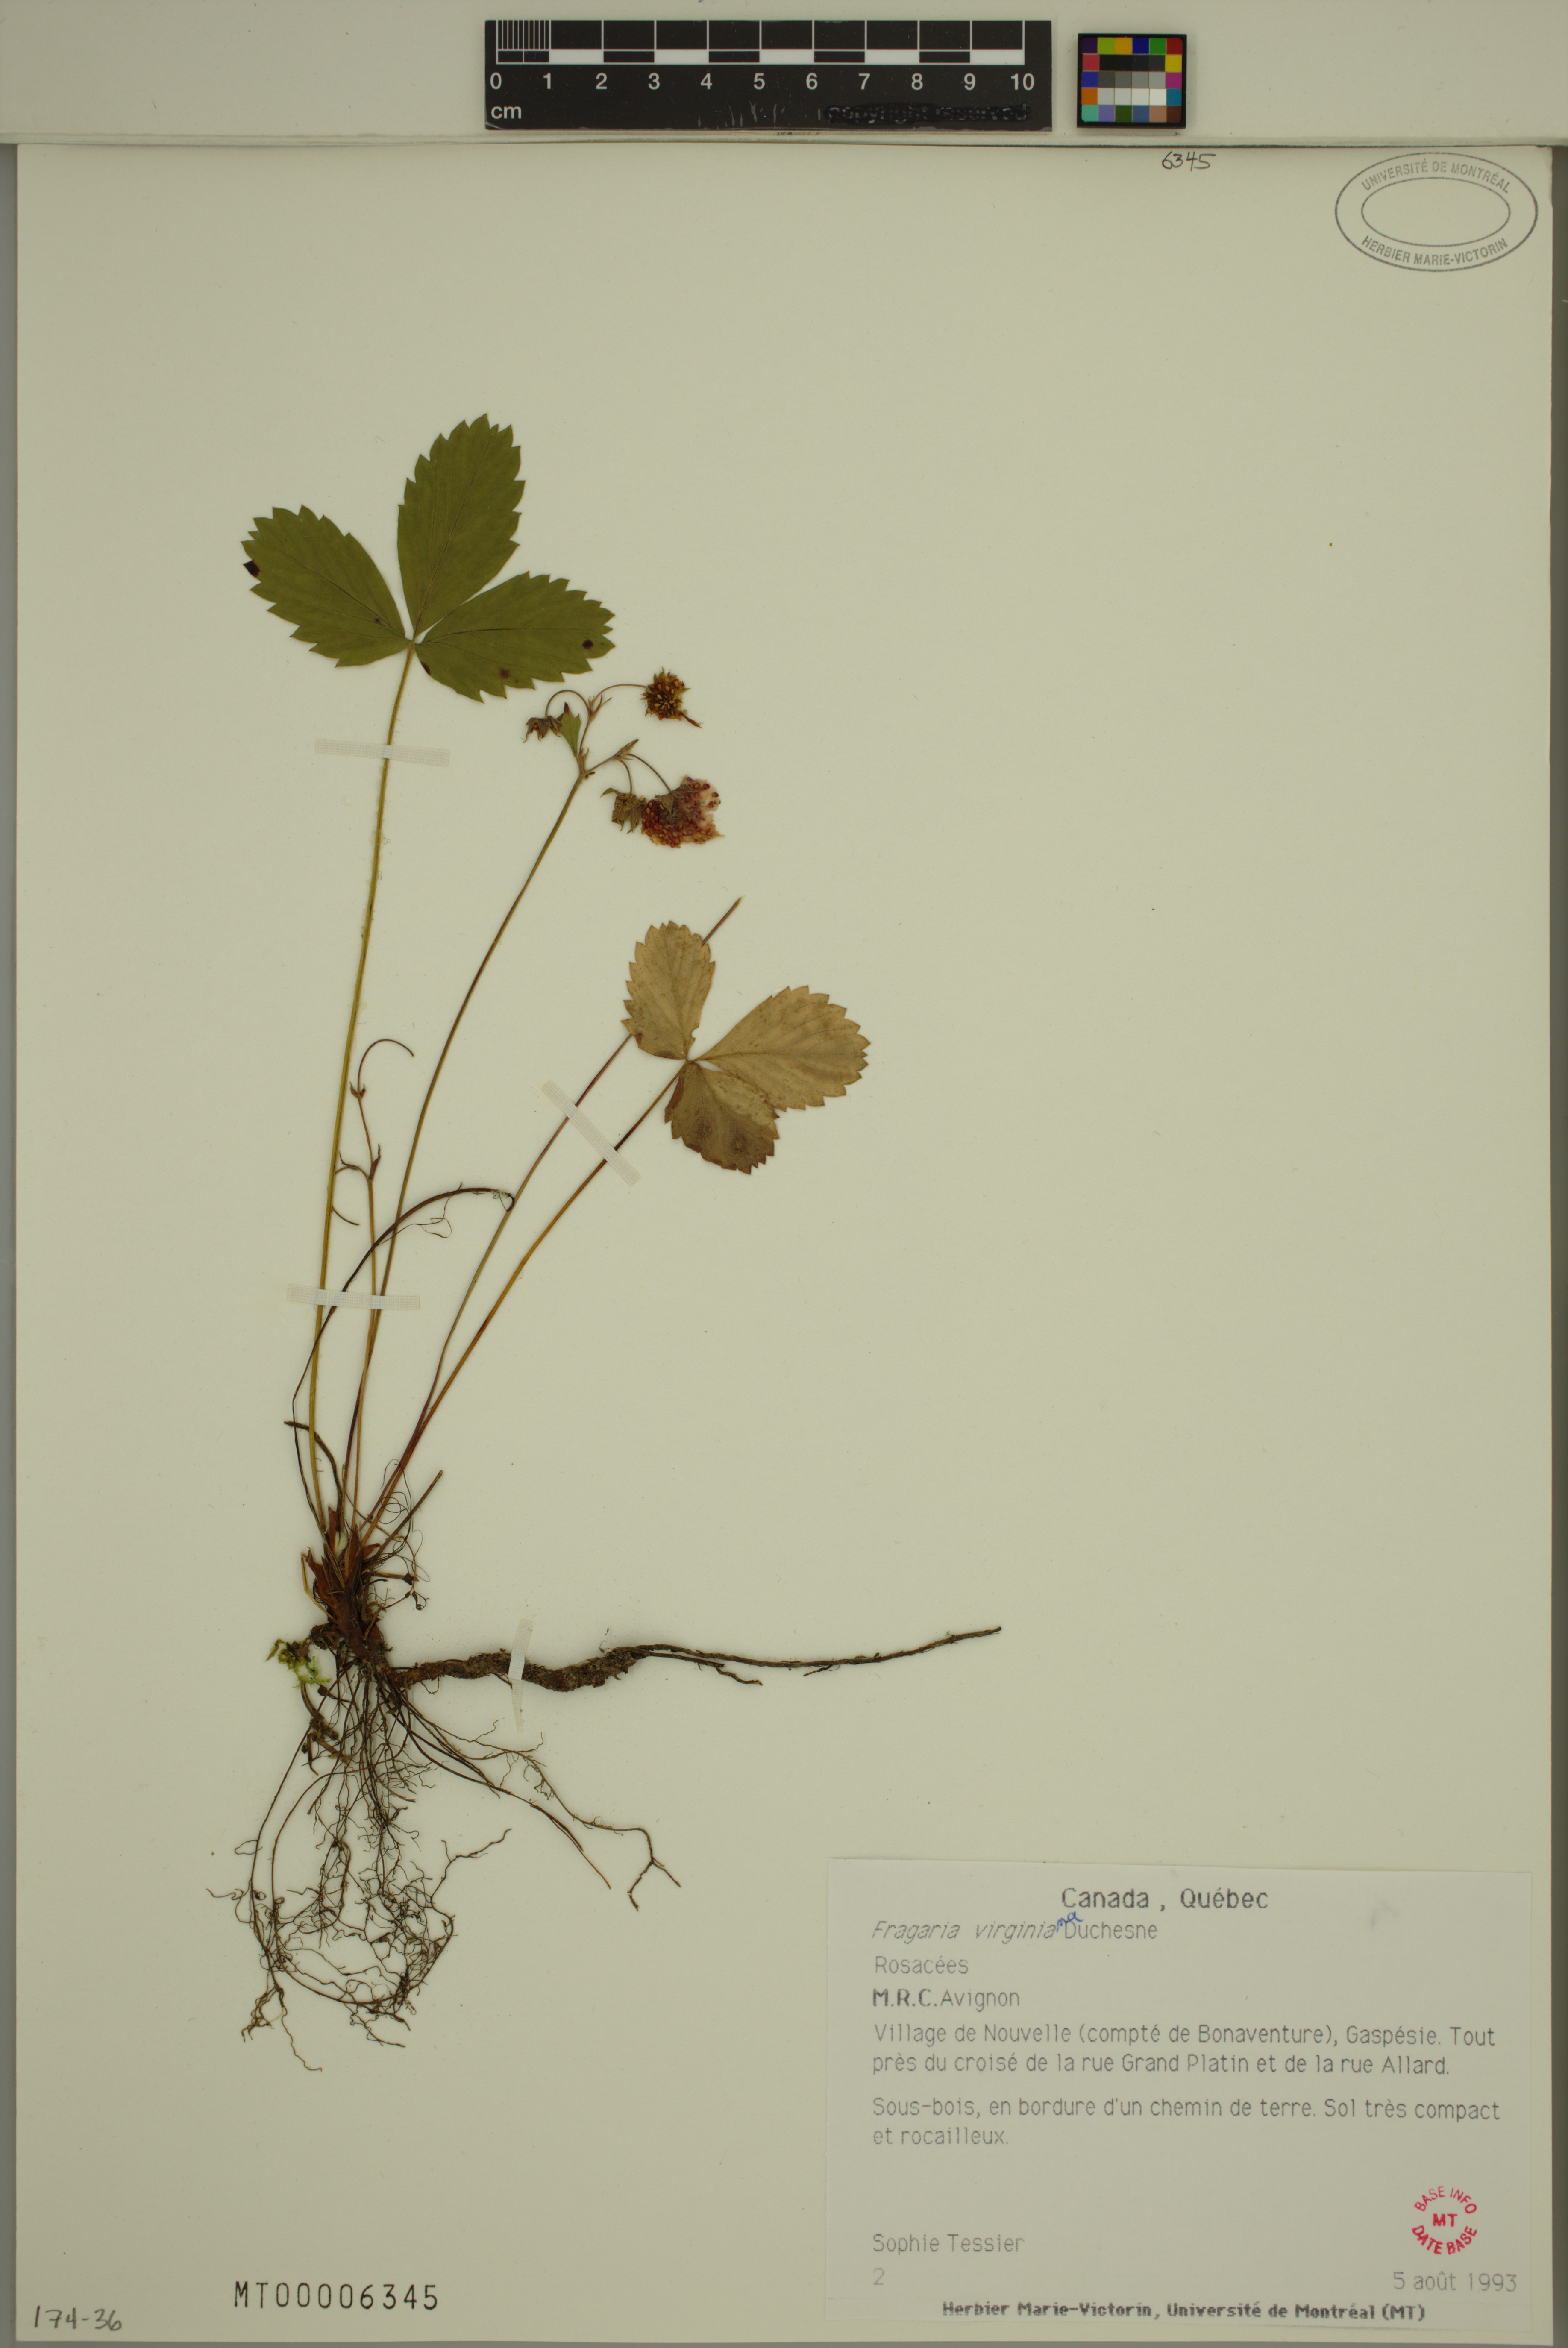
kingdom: Plantae
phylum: Tracheophyta
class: Magnoliopsida
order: Rosales
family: Rosaceae
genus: Fragaria
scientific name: Fragaria virginiana
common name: Thickleaved wild strawberry
